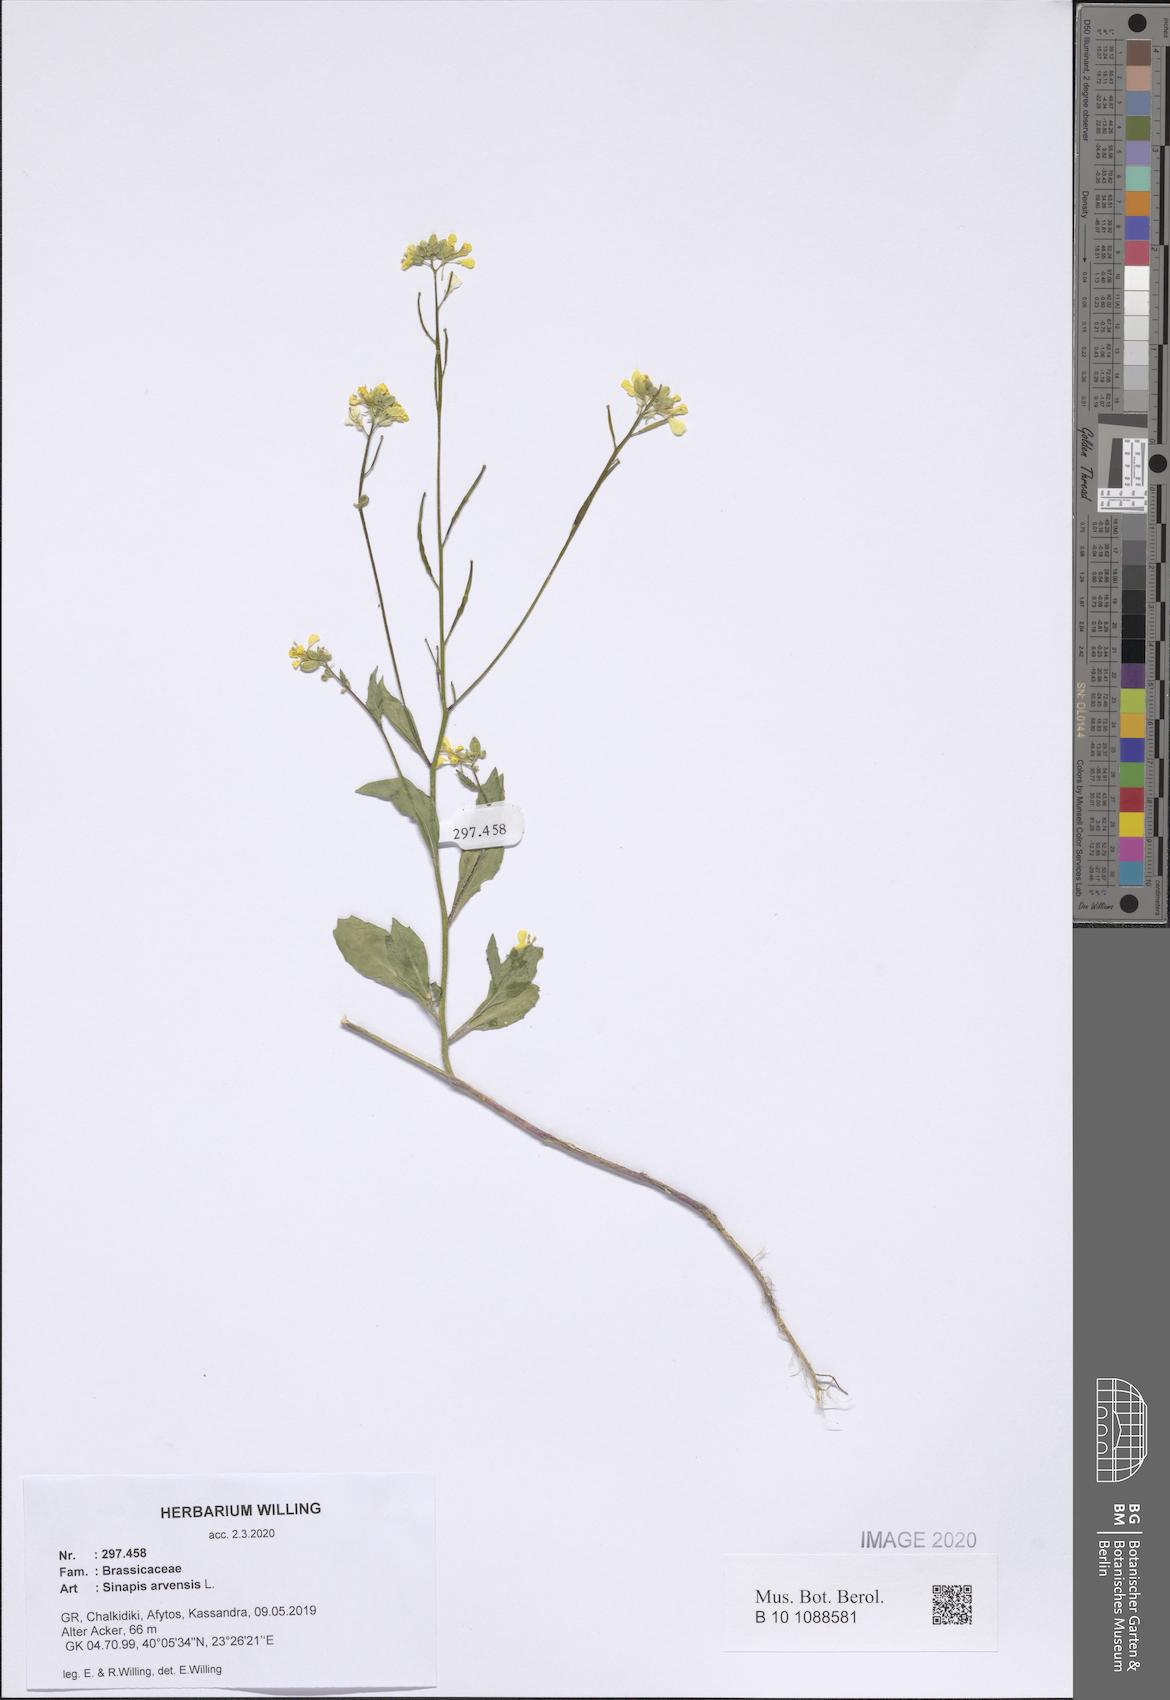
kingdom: Plantae
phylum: Tracheophyta
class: Magnoliopsida
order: Brassicales
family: Brassicaceae
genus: Sinapis
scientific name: Sinapis arvensis
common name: Charlock
